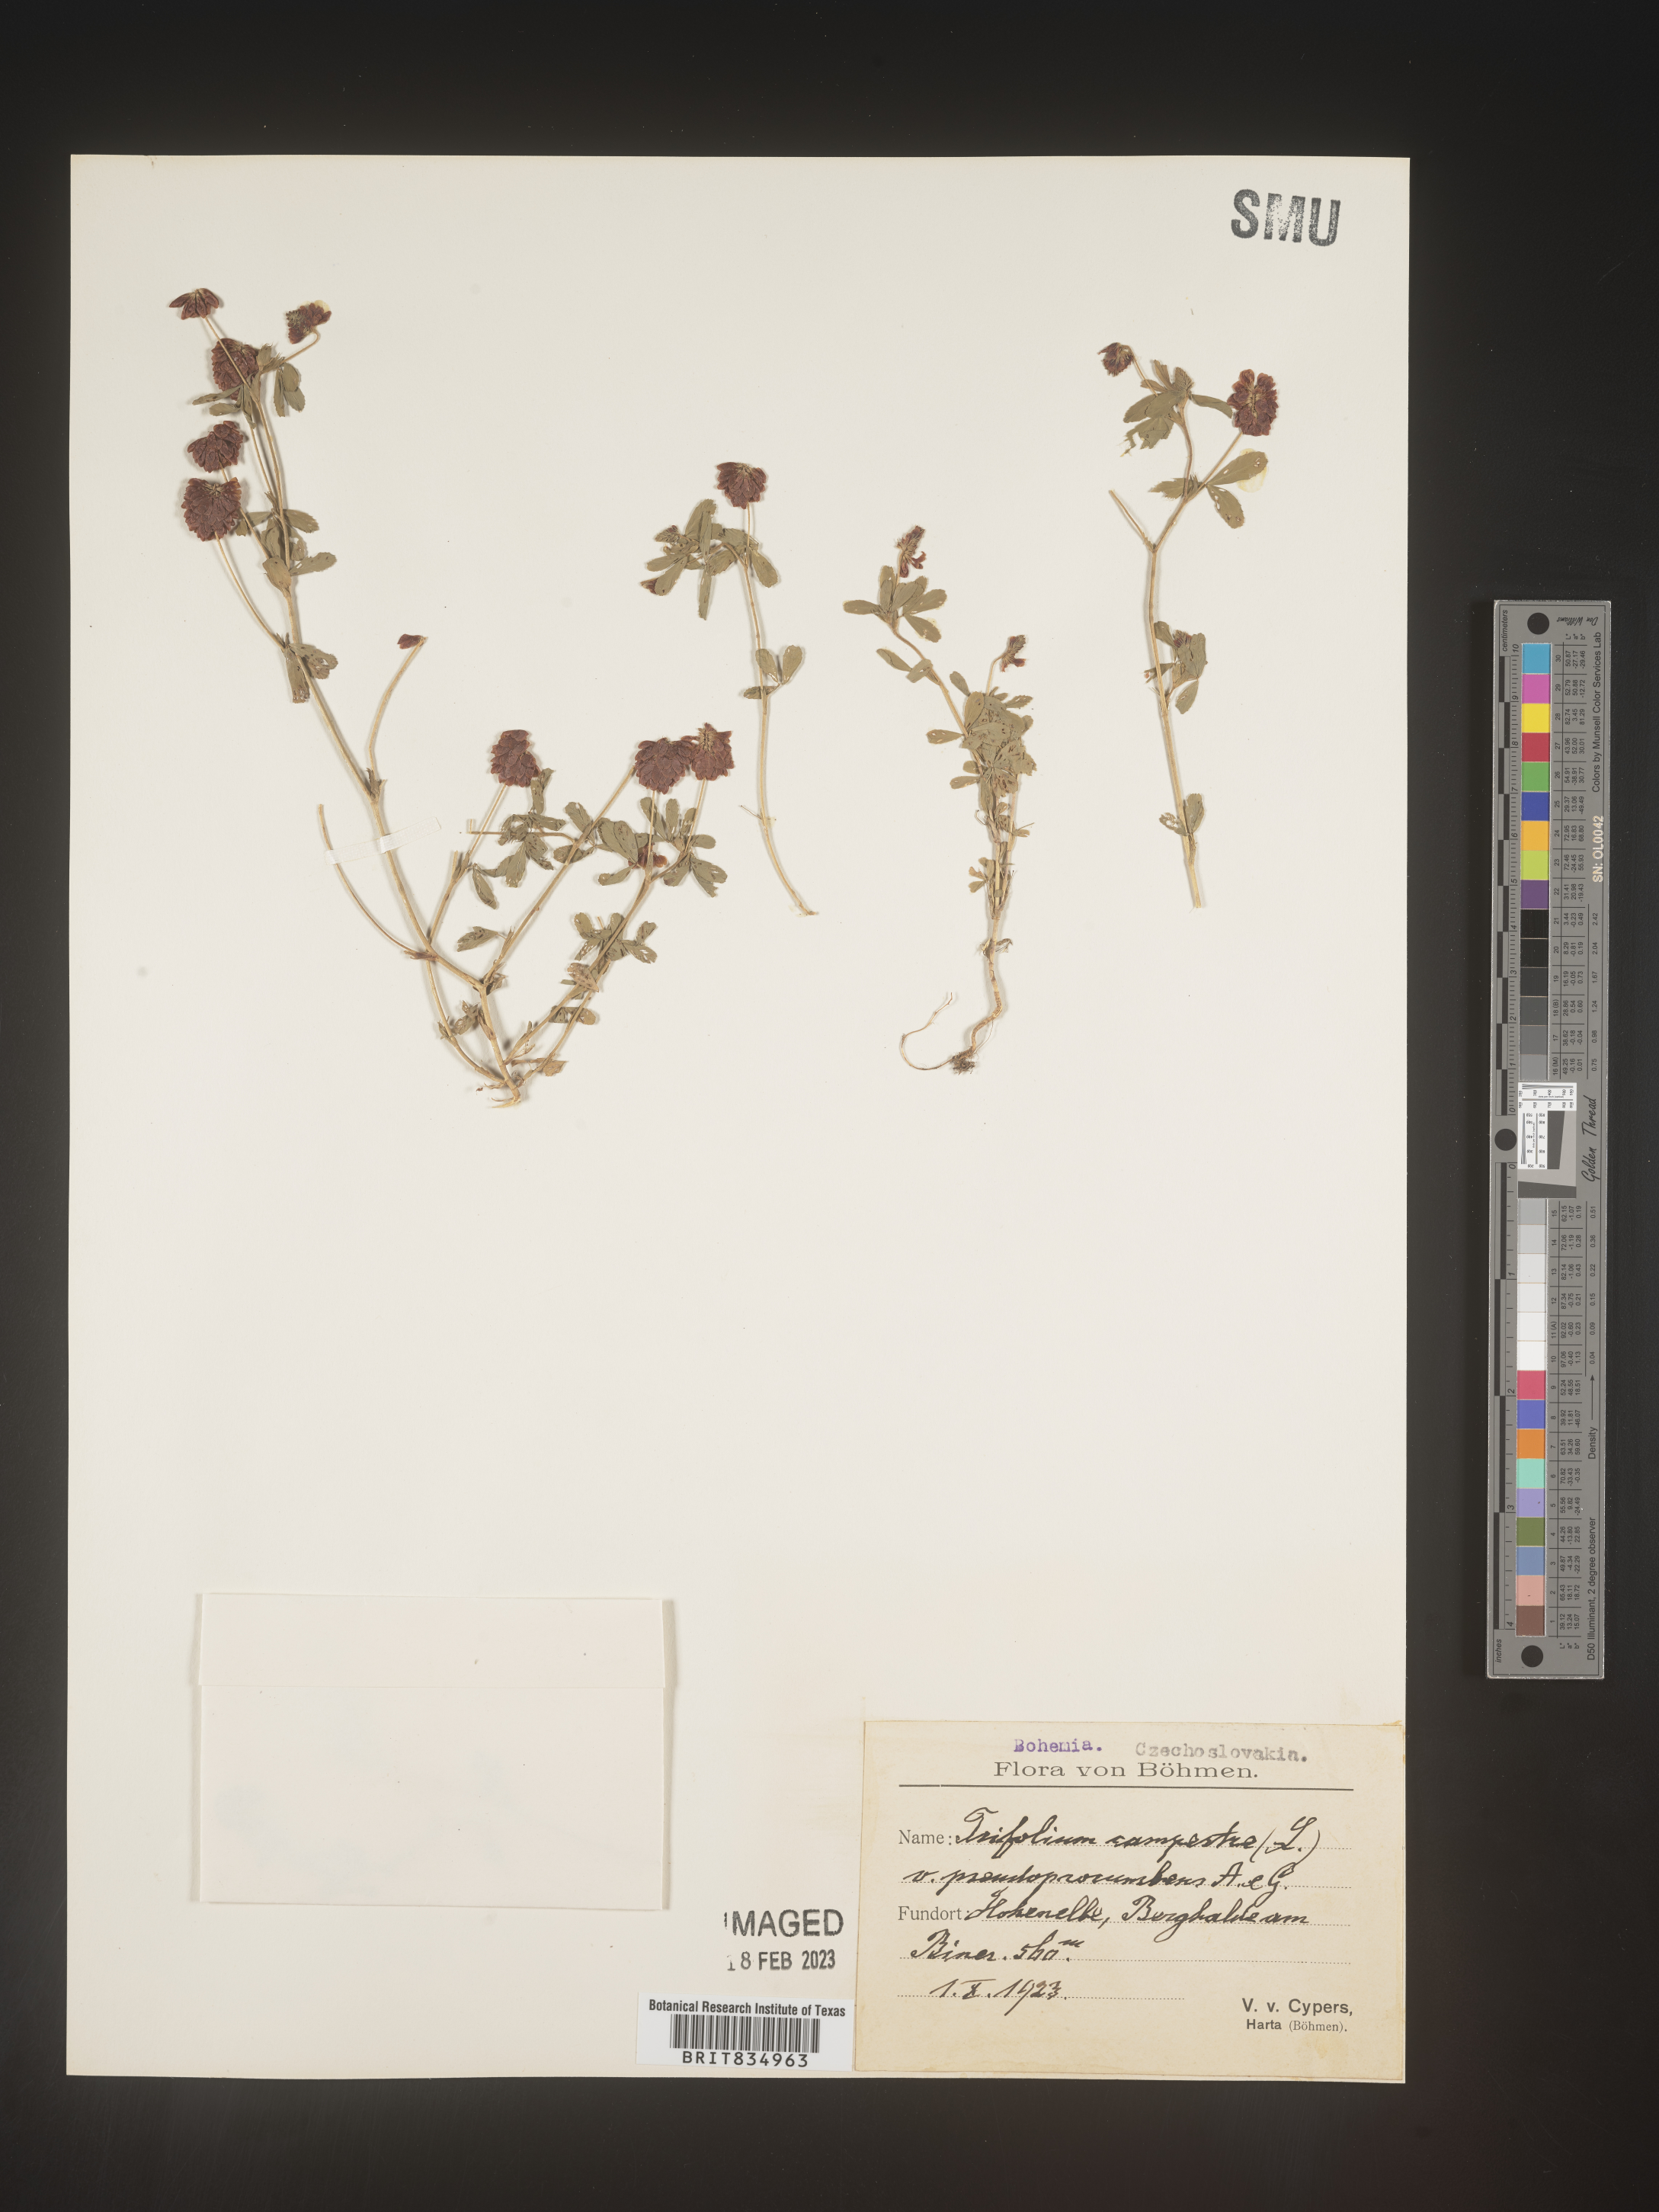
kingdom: Plantae
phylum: Tracheophyta
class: Magnoliopsida
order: Fabales
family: Fabaceae
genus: Trifolium
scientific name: Trifolium
